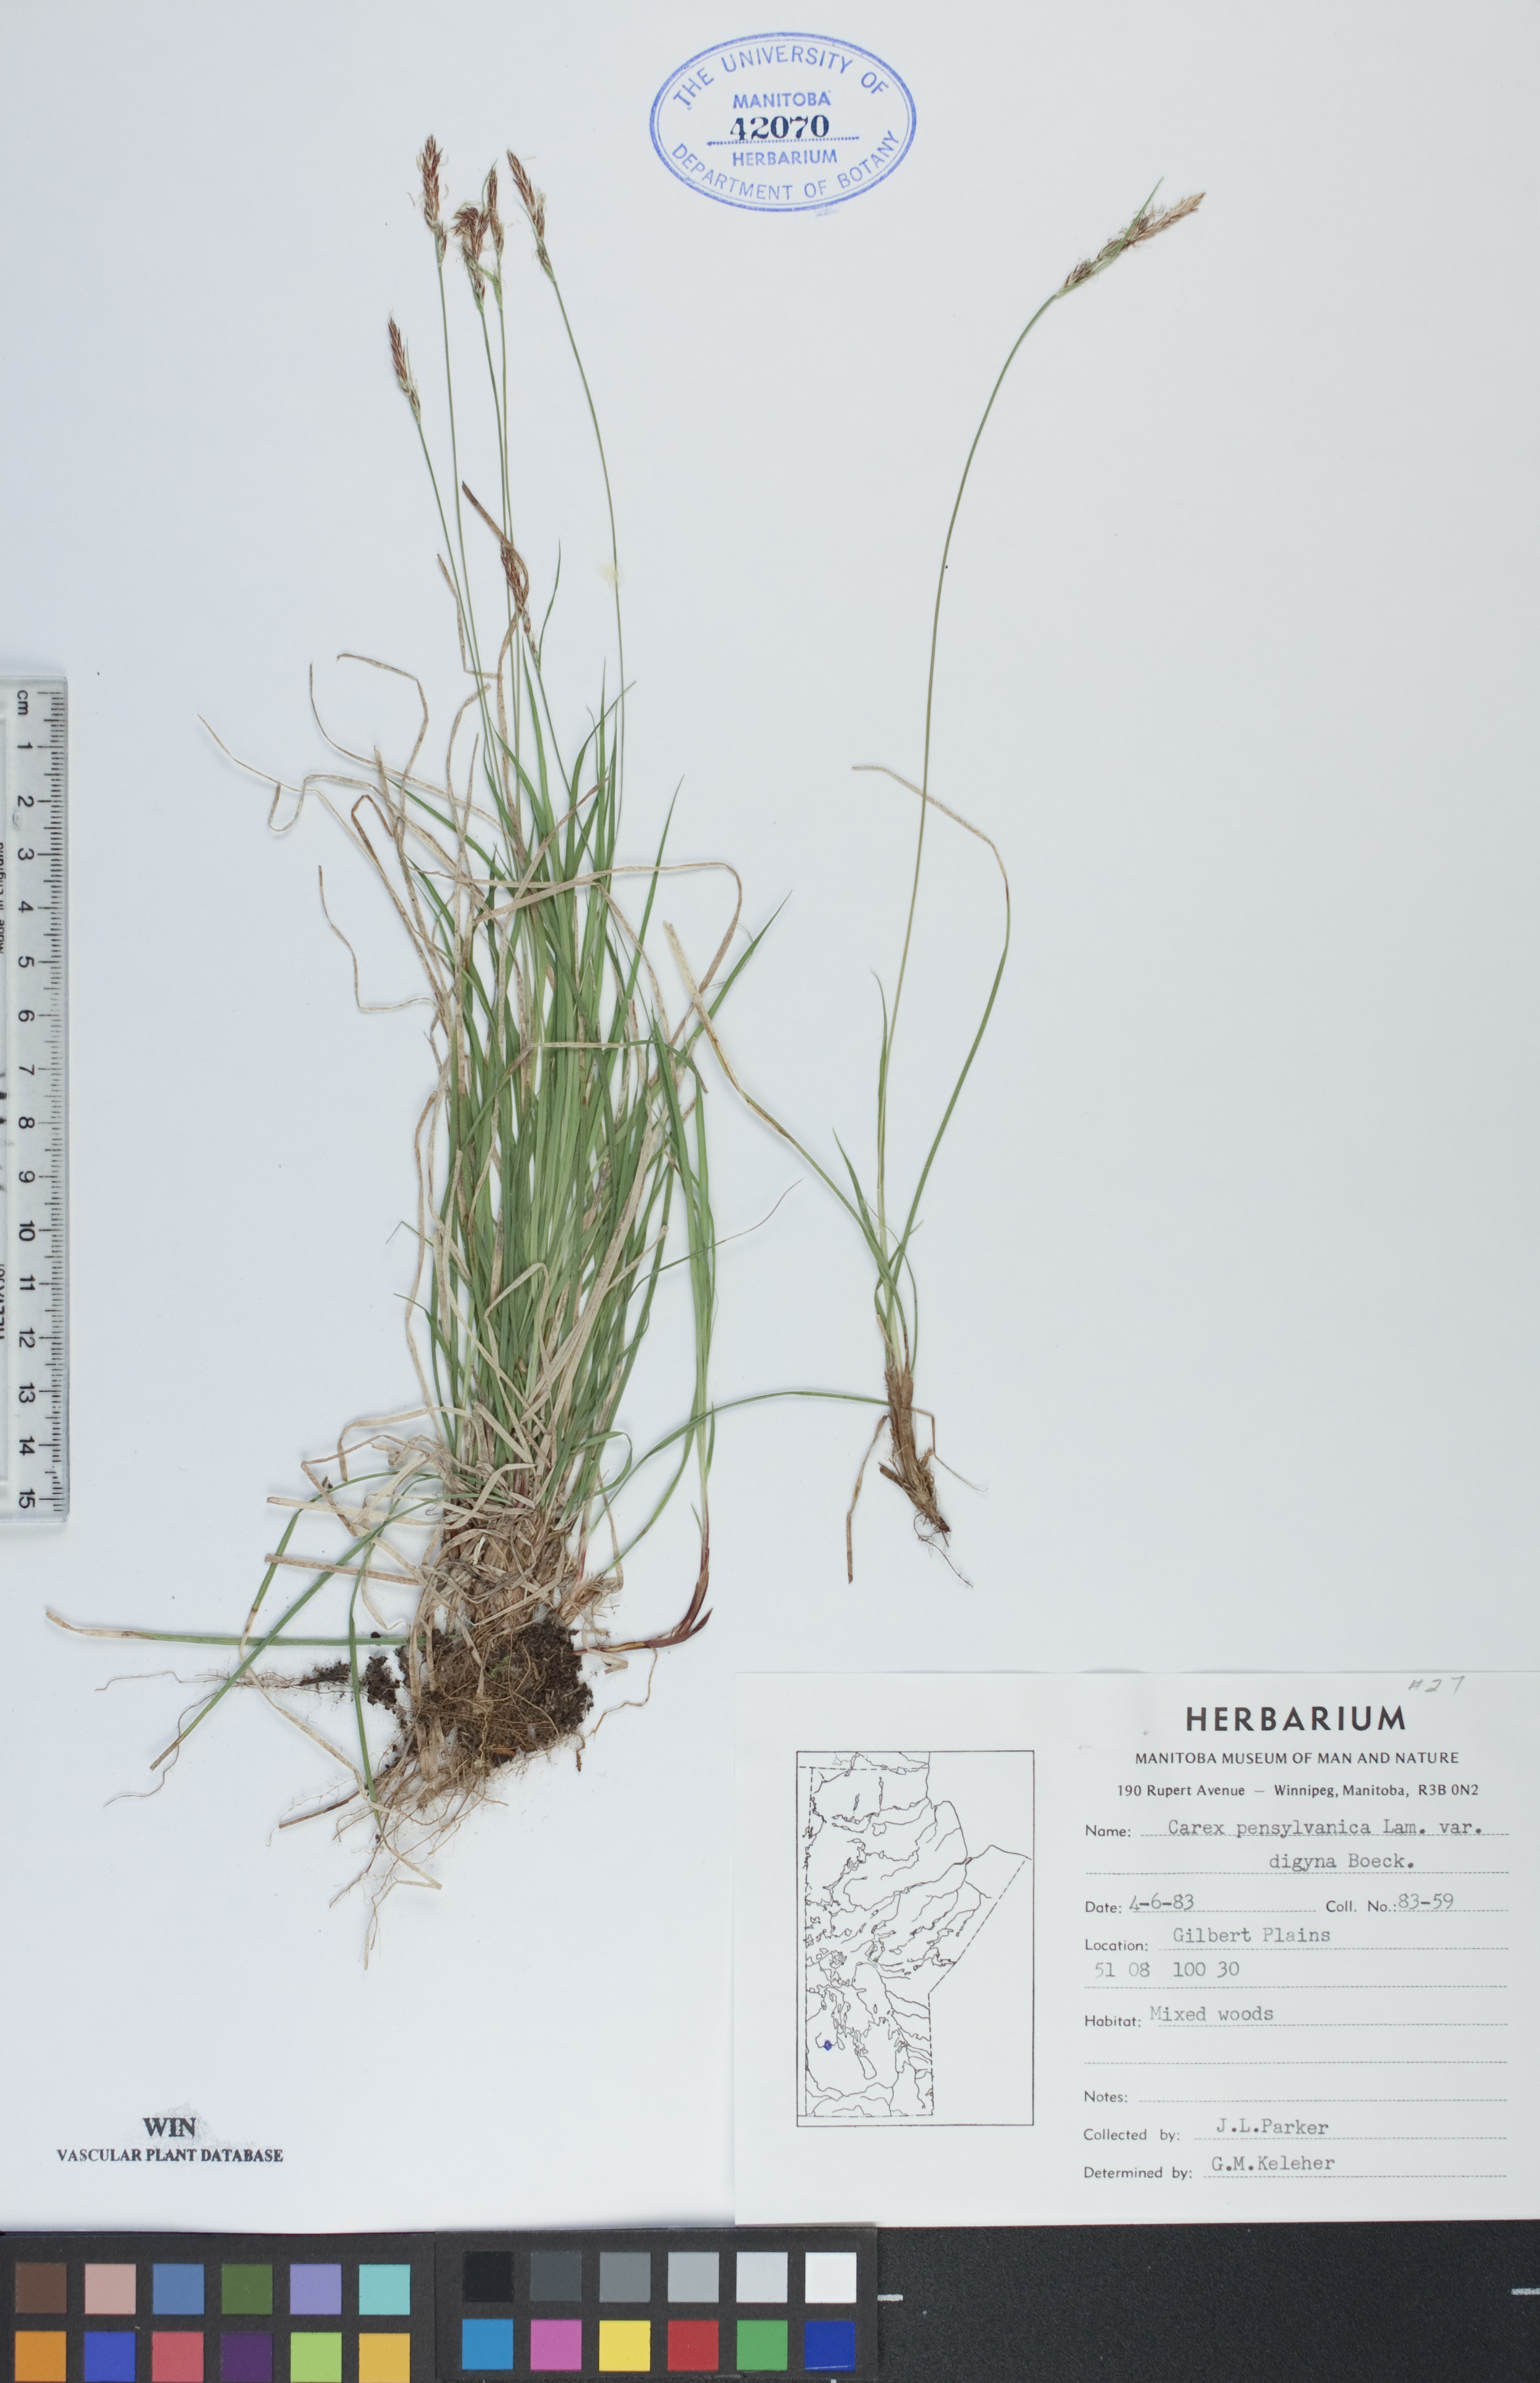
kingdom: Plantae
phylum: Tracheophyta
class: Liliopsida
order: Poales
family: Cyperaceae
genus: Carex
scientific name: Carex inops
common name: Long-stolon sedge
